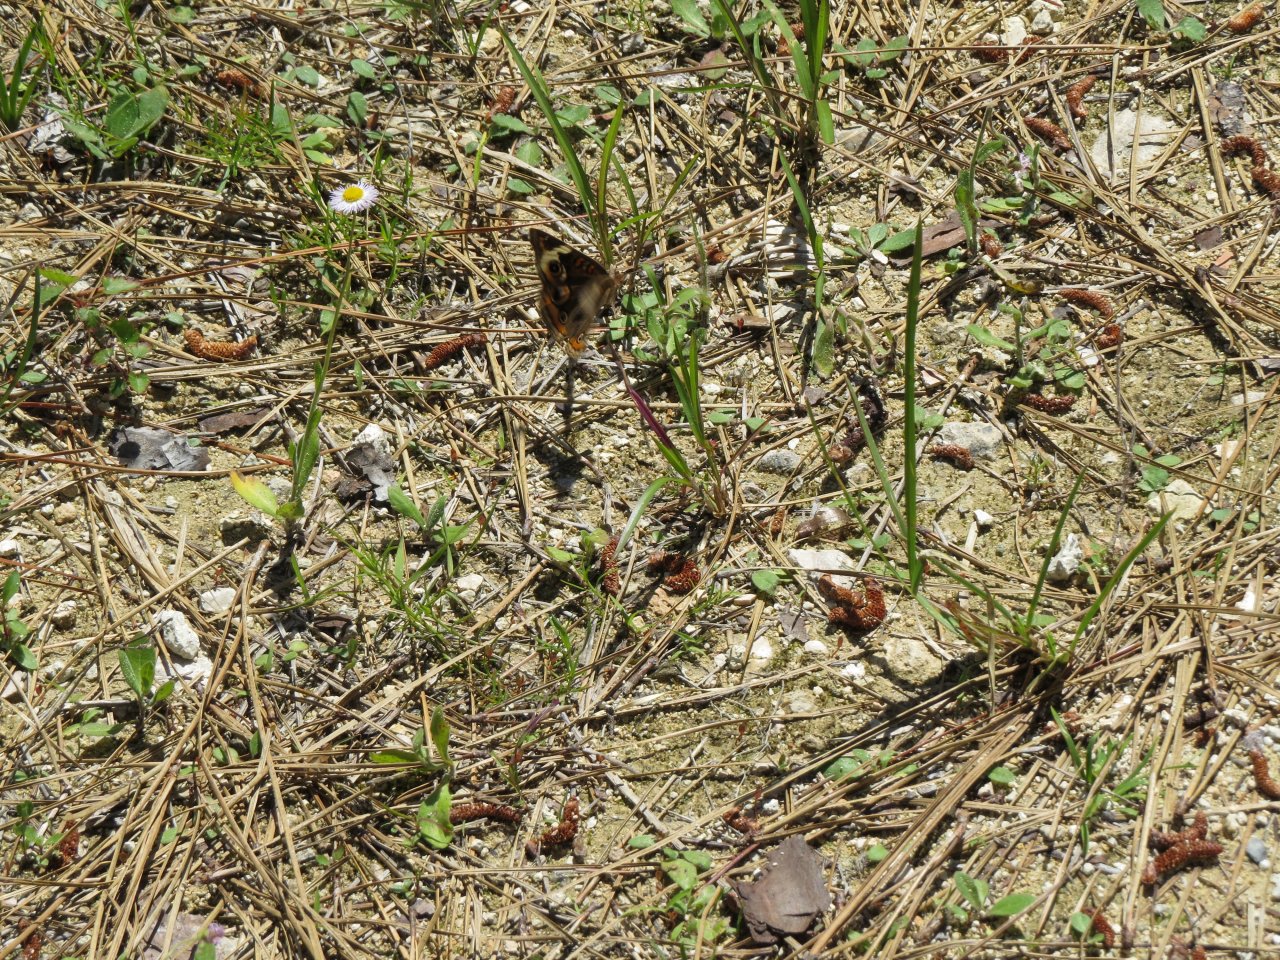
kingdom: Animalia
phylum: Arthropoda
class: Insecta
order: Lepidoptera
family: Nymphalidae
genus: Junonia
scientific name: Junonia coenia
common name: Common Buckeye
